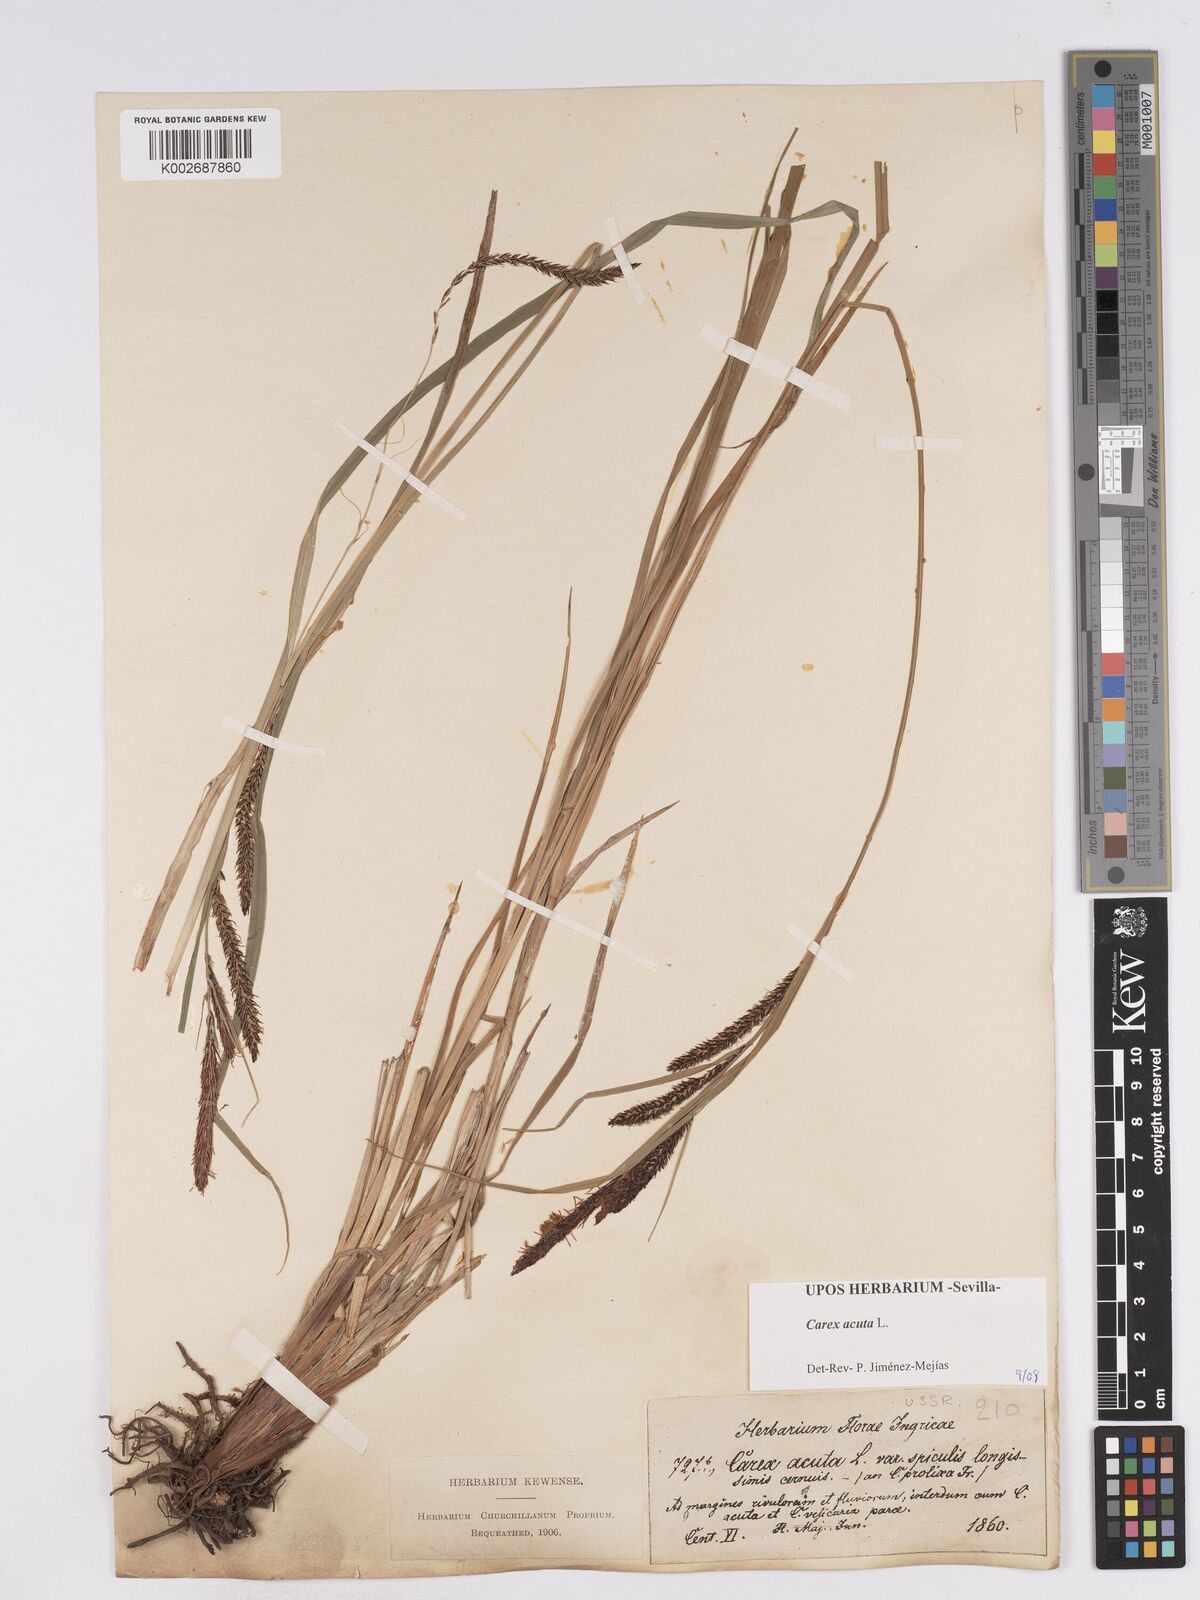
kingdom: Plantae
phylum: Tracheophyta
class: Liliopsida
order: Poales
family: Cyperaceae
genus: Carex
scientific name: Carex acuta
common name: Slender tufted-sedge
